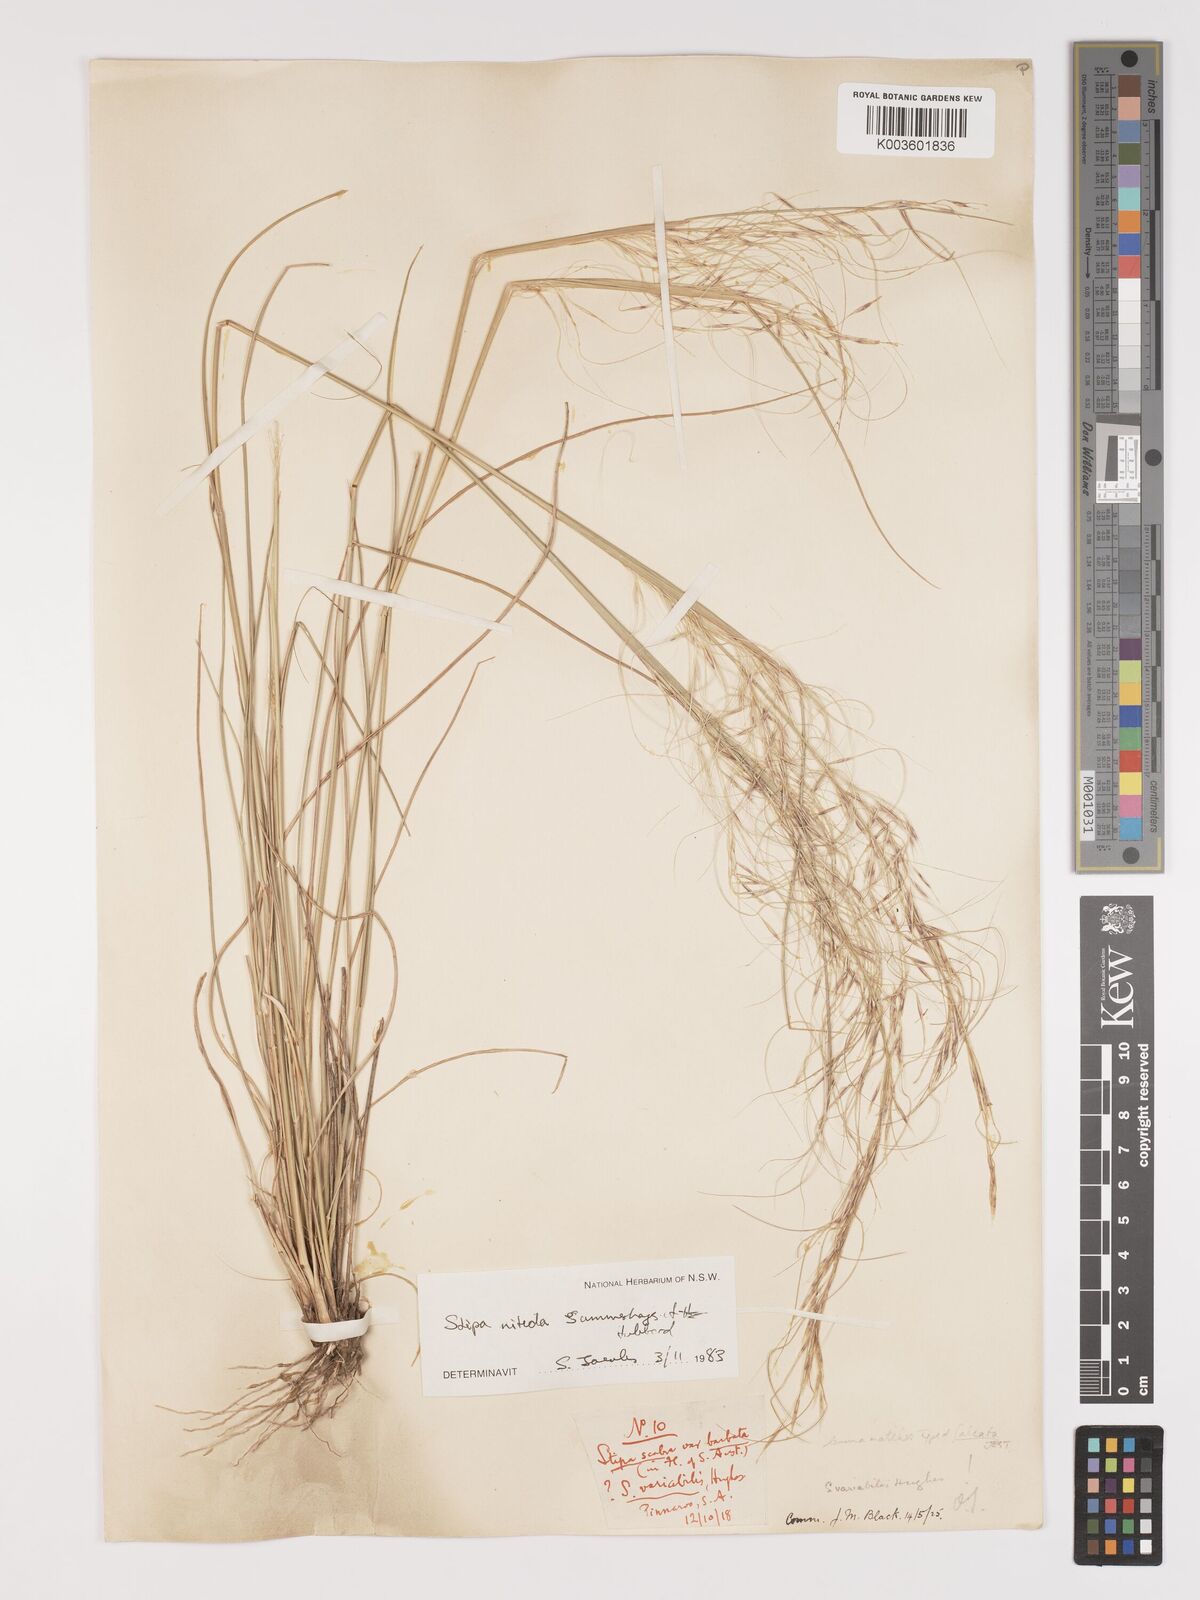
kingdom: Plantae
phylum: Tracheophyta
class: Liliopsida
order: Poales
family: Poaceae
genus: Austrostipa
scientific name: Austrostipa nitida
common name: Balcarra grass
